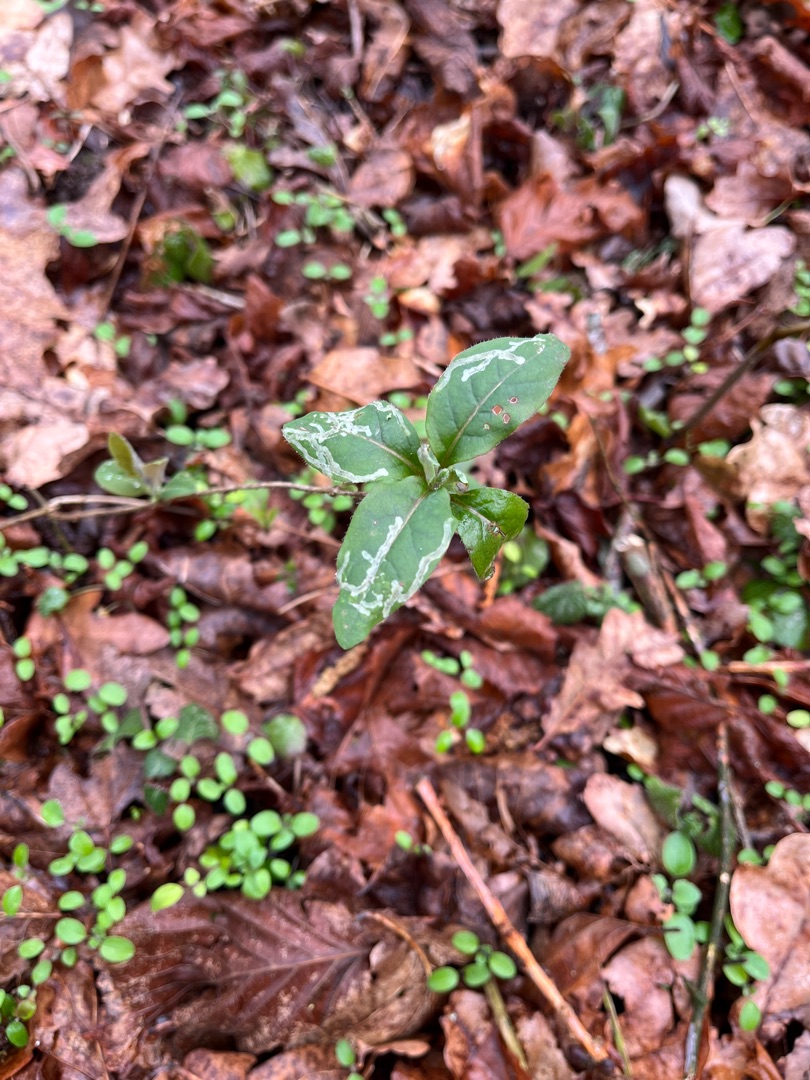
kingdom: Plantae
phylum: Tracheophyta
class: Magnoliopsida
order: Dipsacales
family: Caprifoliaceae
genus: Lonicera
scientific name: Lonicera periclymenum
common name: Almindelig gedeblad
